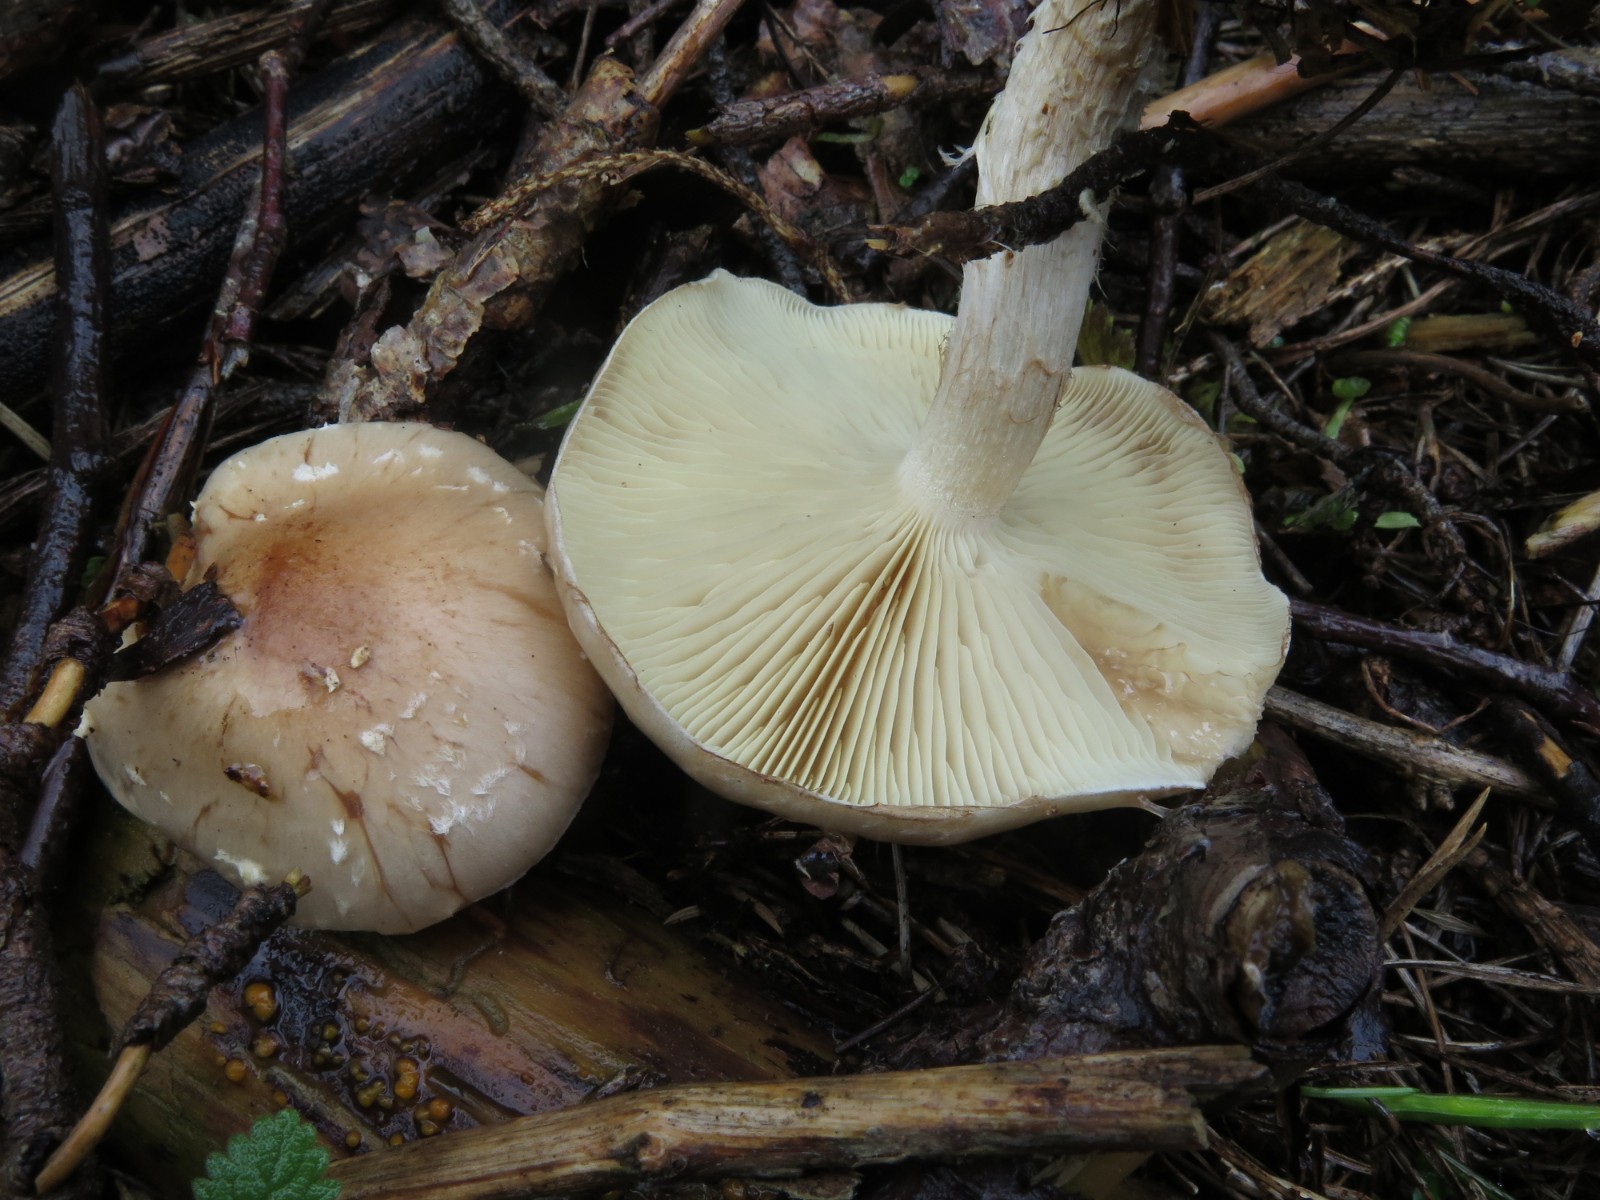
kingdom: Fungi
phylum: Basidiomycota
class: Agaricomycetes
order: Agaricales
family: Strophariaceae
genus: Pholiota
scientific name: Pholiota lenta
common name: løv-skælhat
